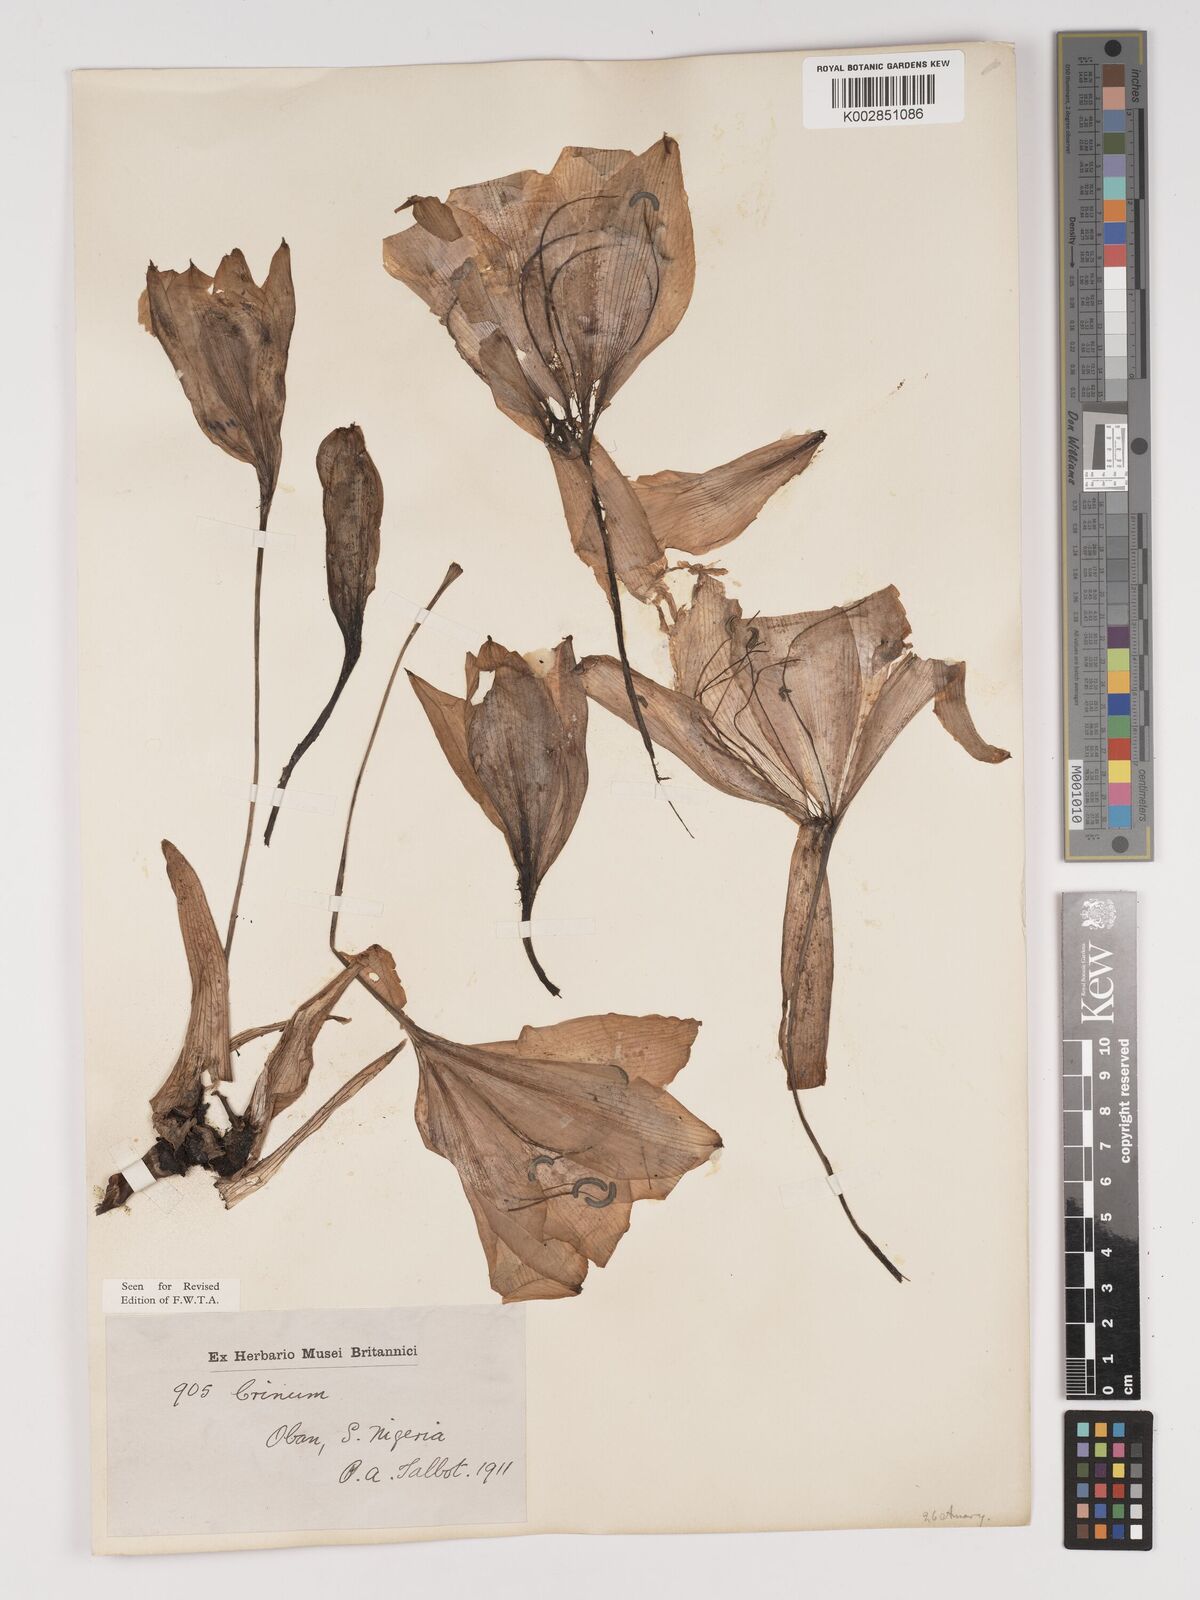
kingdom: Plantae
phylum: Tracheophyta
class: Liliopsida
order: Asparagales
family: Amaryllidaceae
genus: Crinum
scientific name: Crinum jagus
